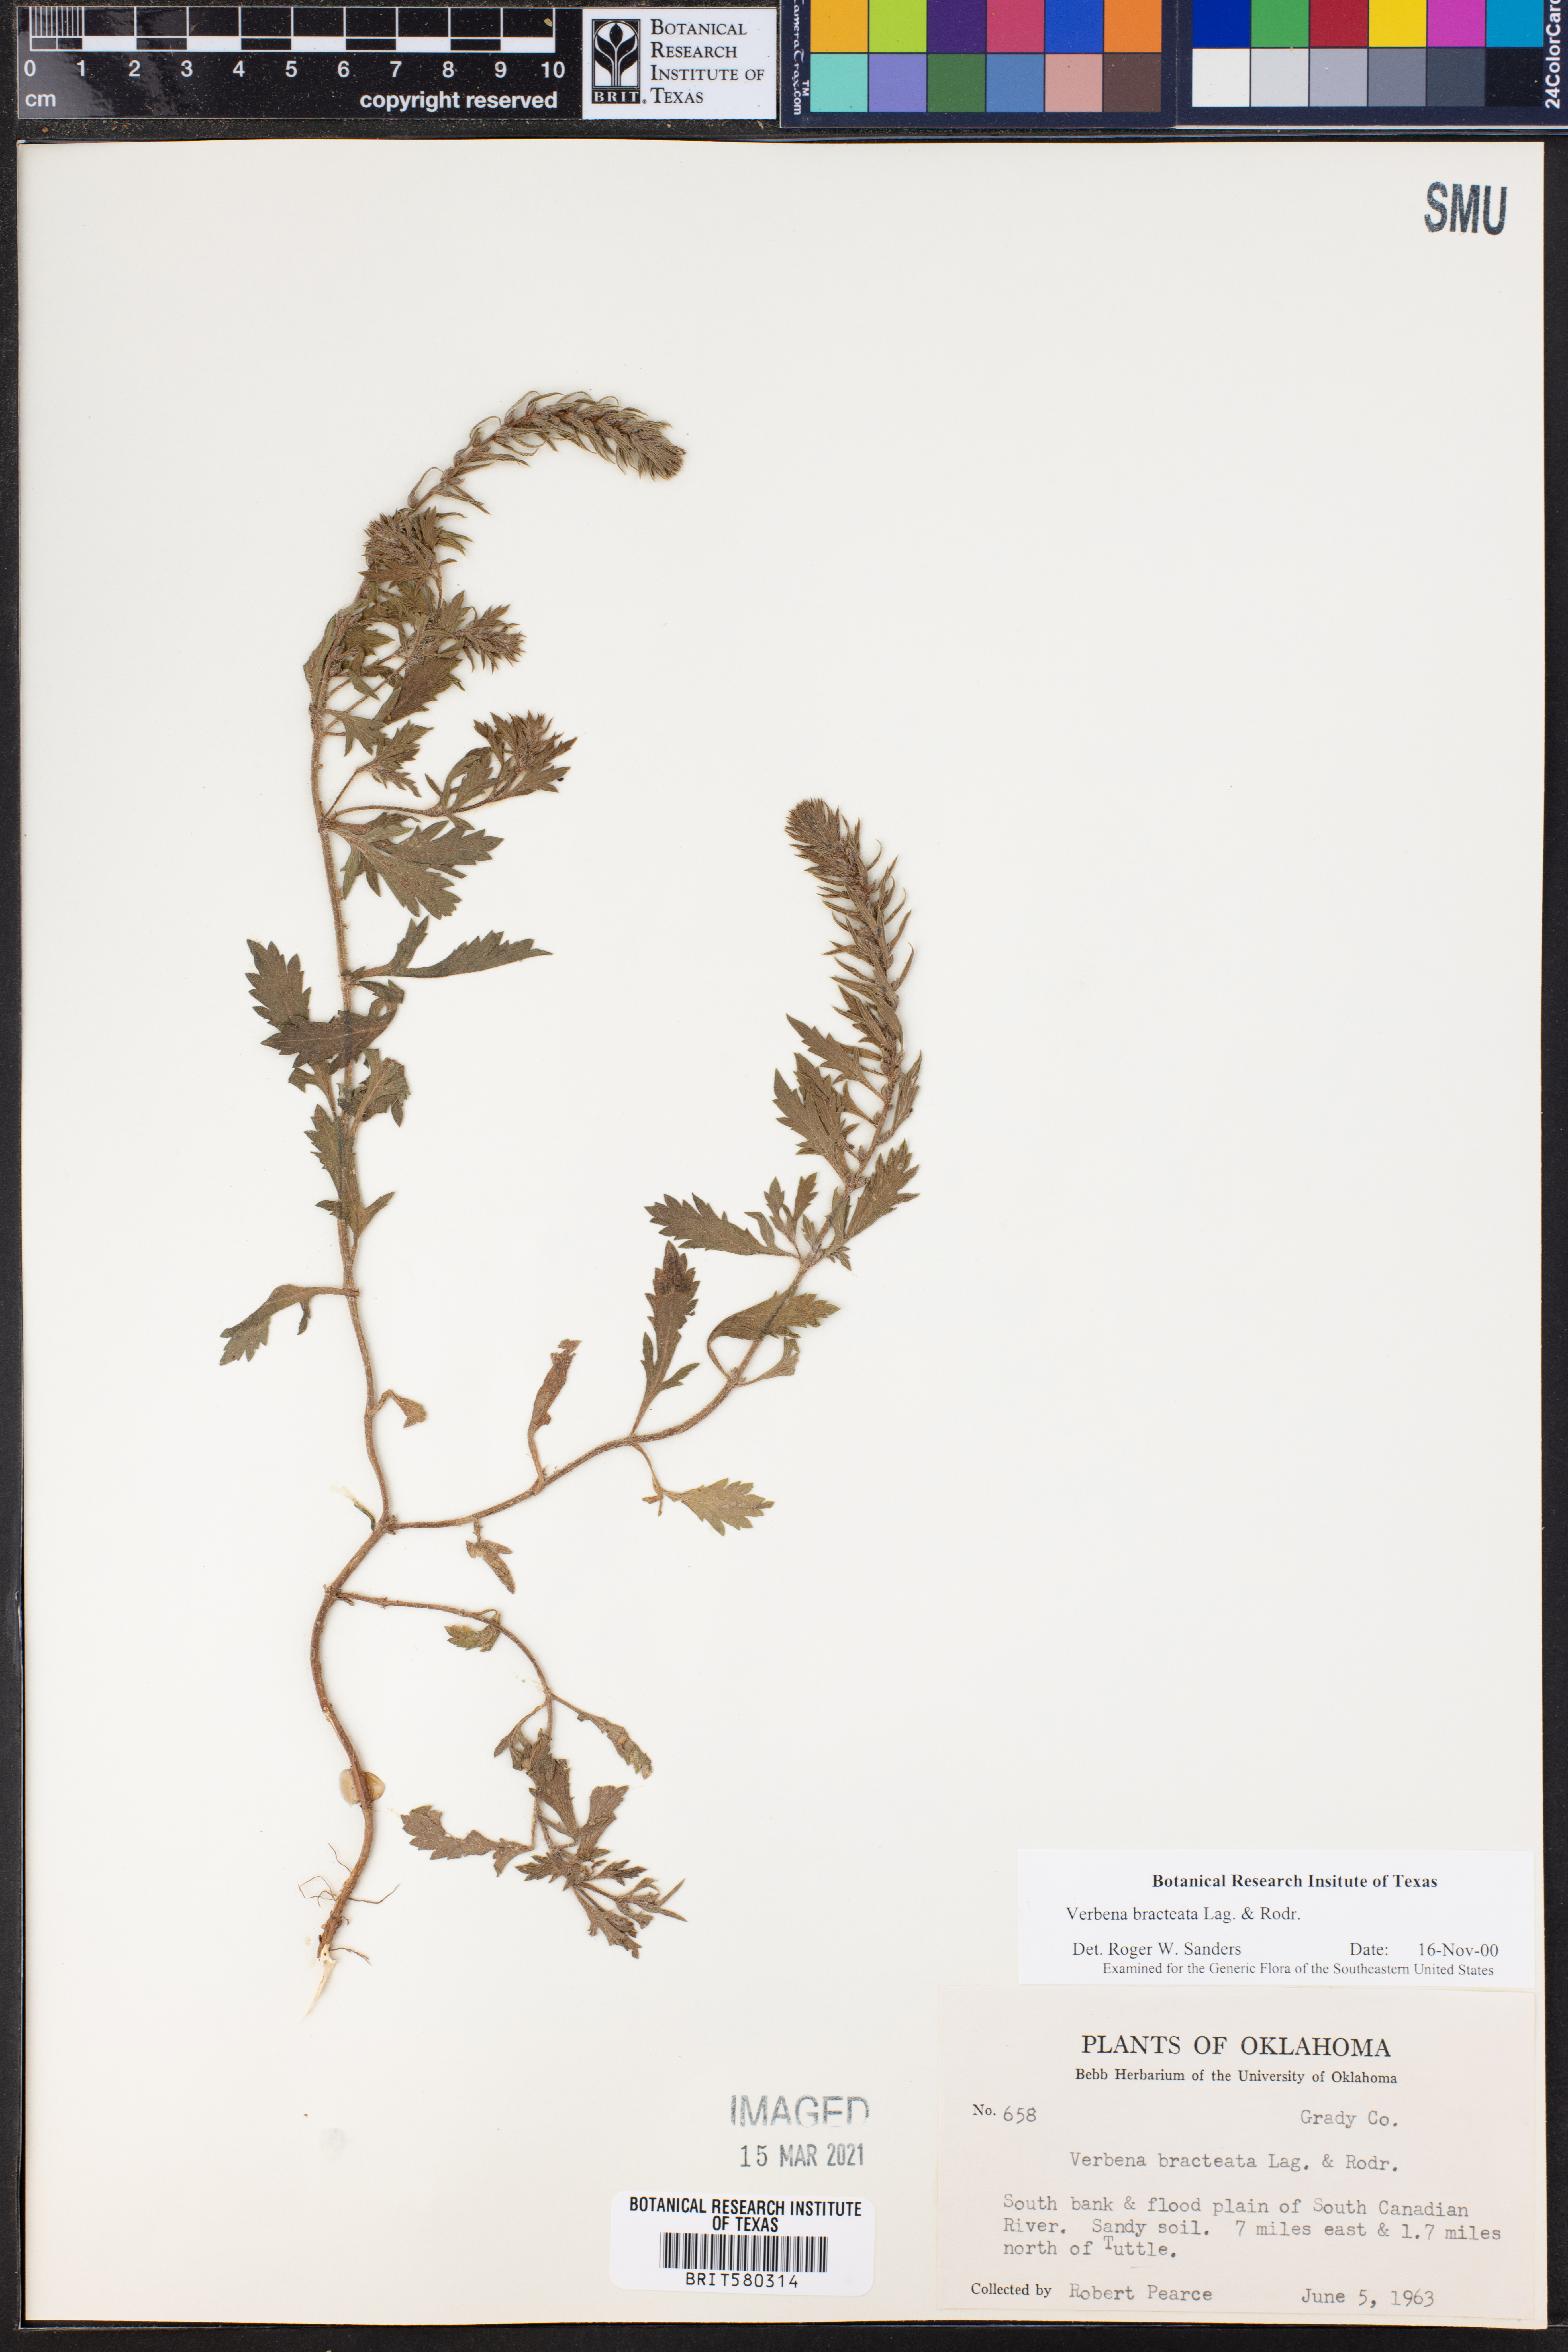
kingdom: Plantae
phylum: Tracheophyta
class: Magnoliopsida
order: Lamiales
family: Verbenaceae
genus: Verbena
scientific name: Verbena bracteata
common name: Bracted vervain
